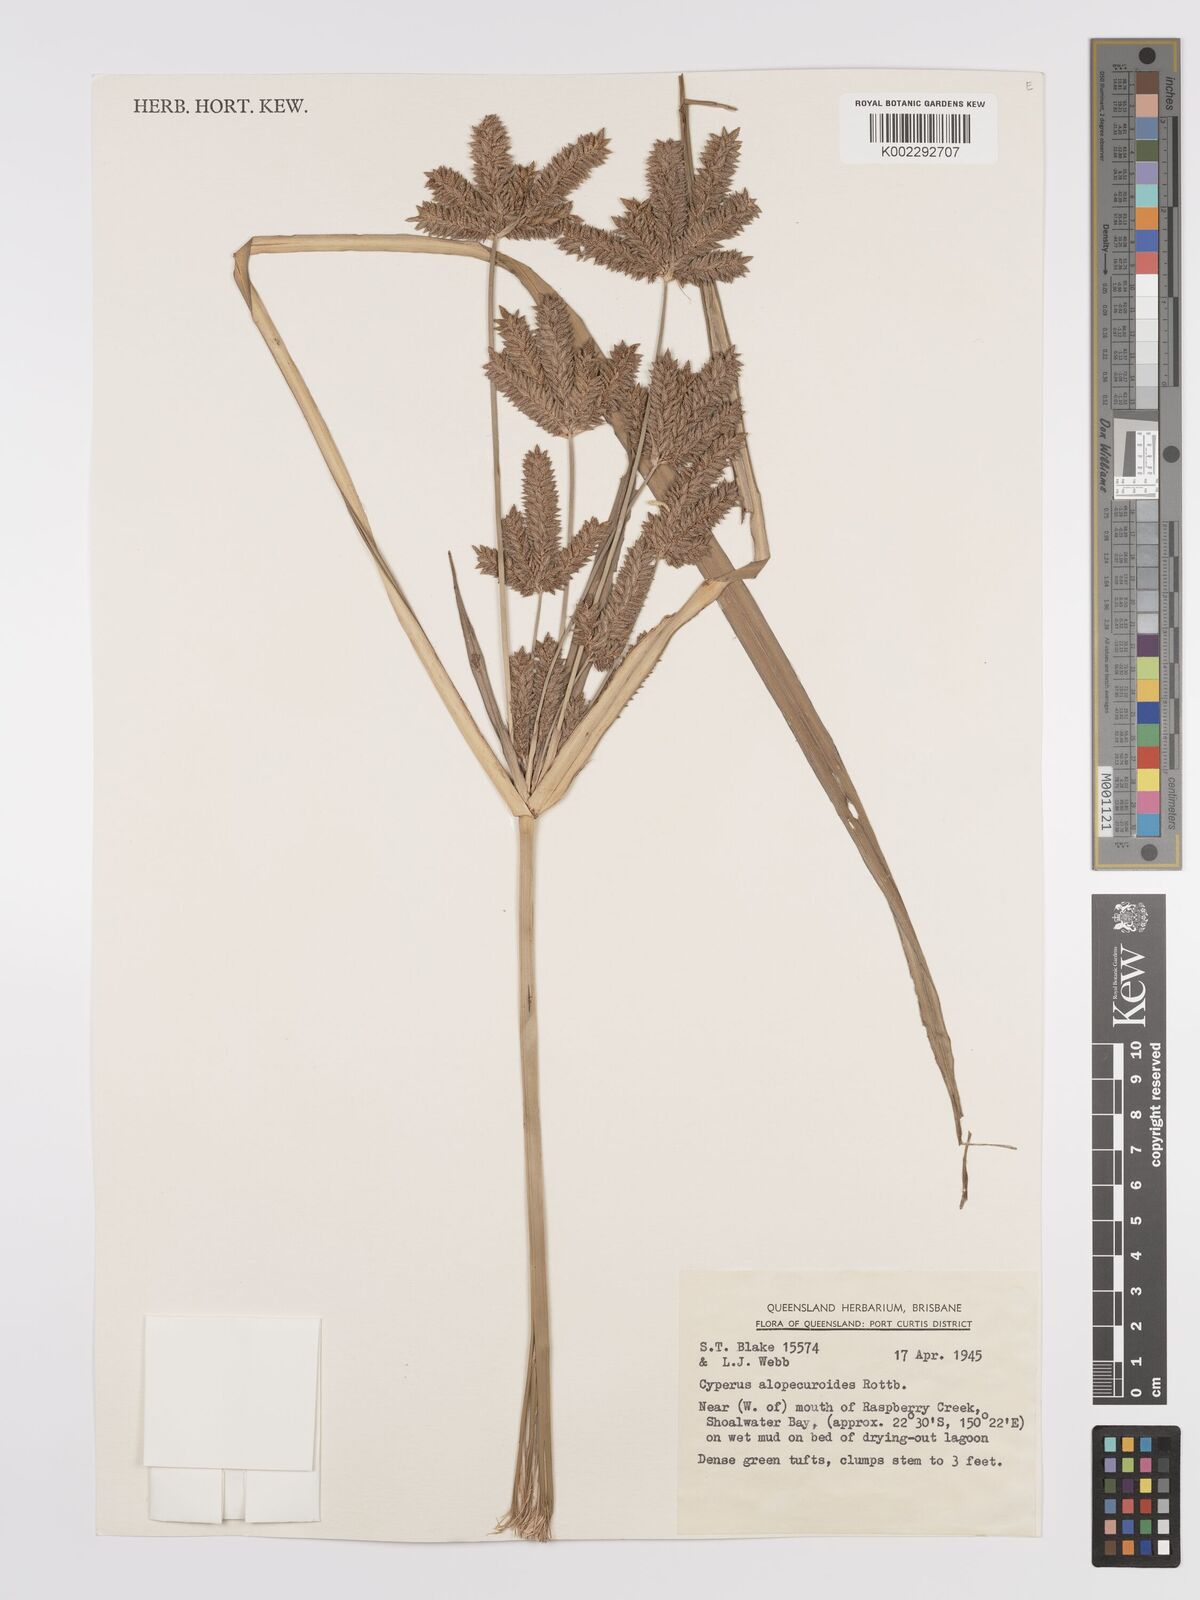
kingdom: Plantae
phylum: Tracheophyta
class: Liliopsida
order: Poales
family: Cyperaceae
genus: Cyperus
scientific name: Cyperus alopecuroides
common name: Foxtail flatsedge
